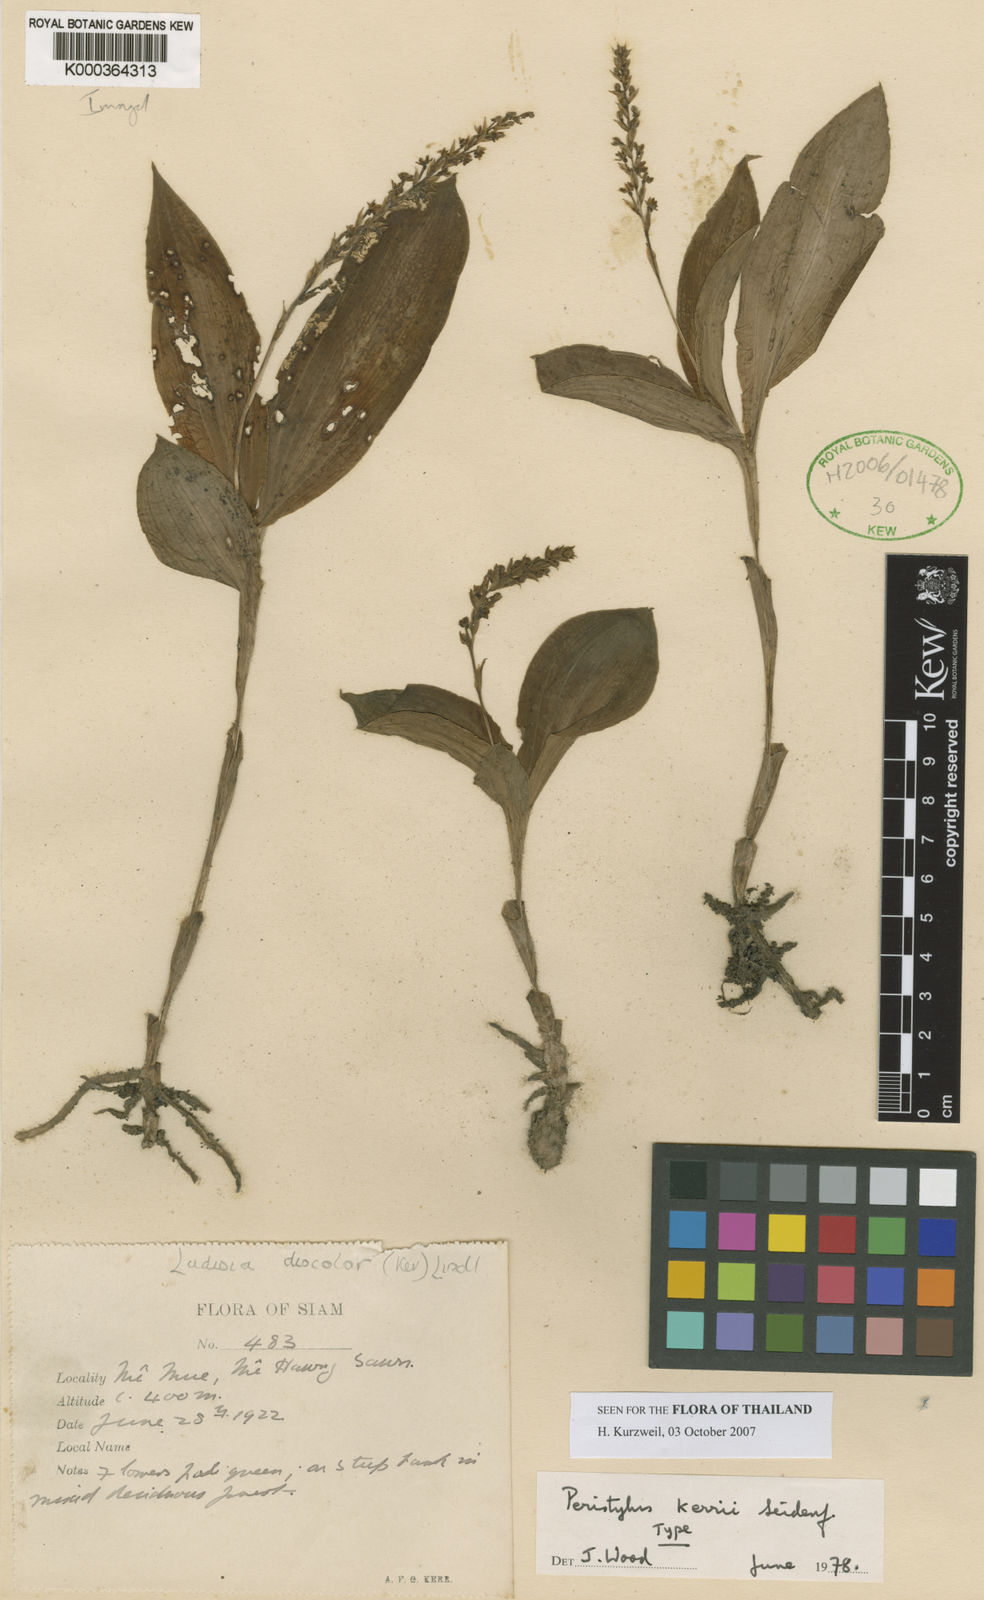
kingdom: Plantae
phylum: Tracheophyta
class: Liliopsida
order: Asparagales
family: Orchidaceae
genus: Habenaria
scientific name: Habenaria
